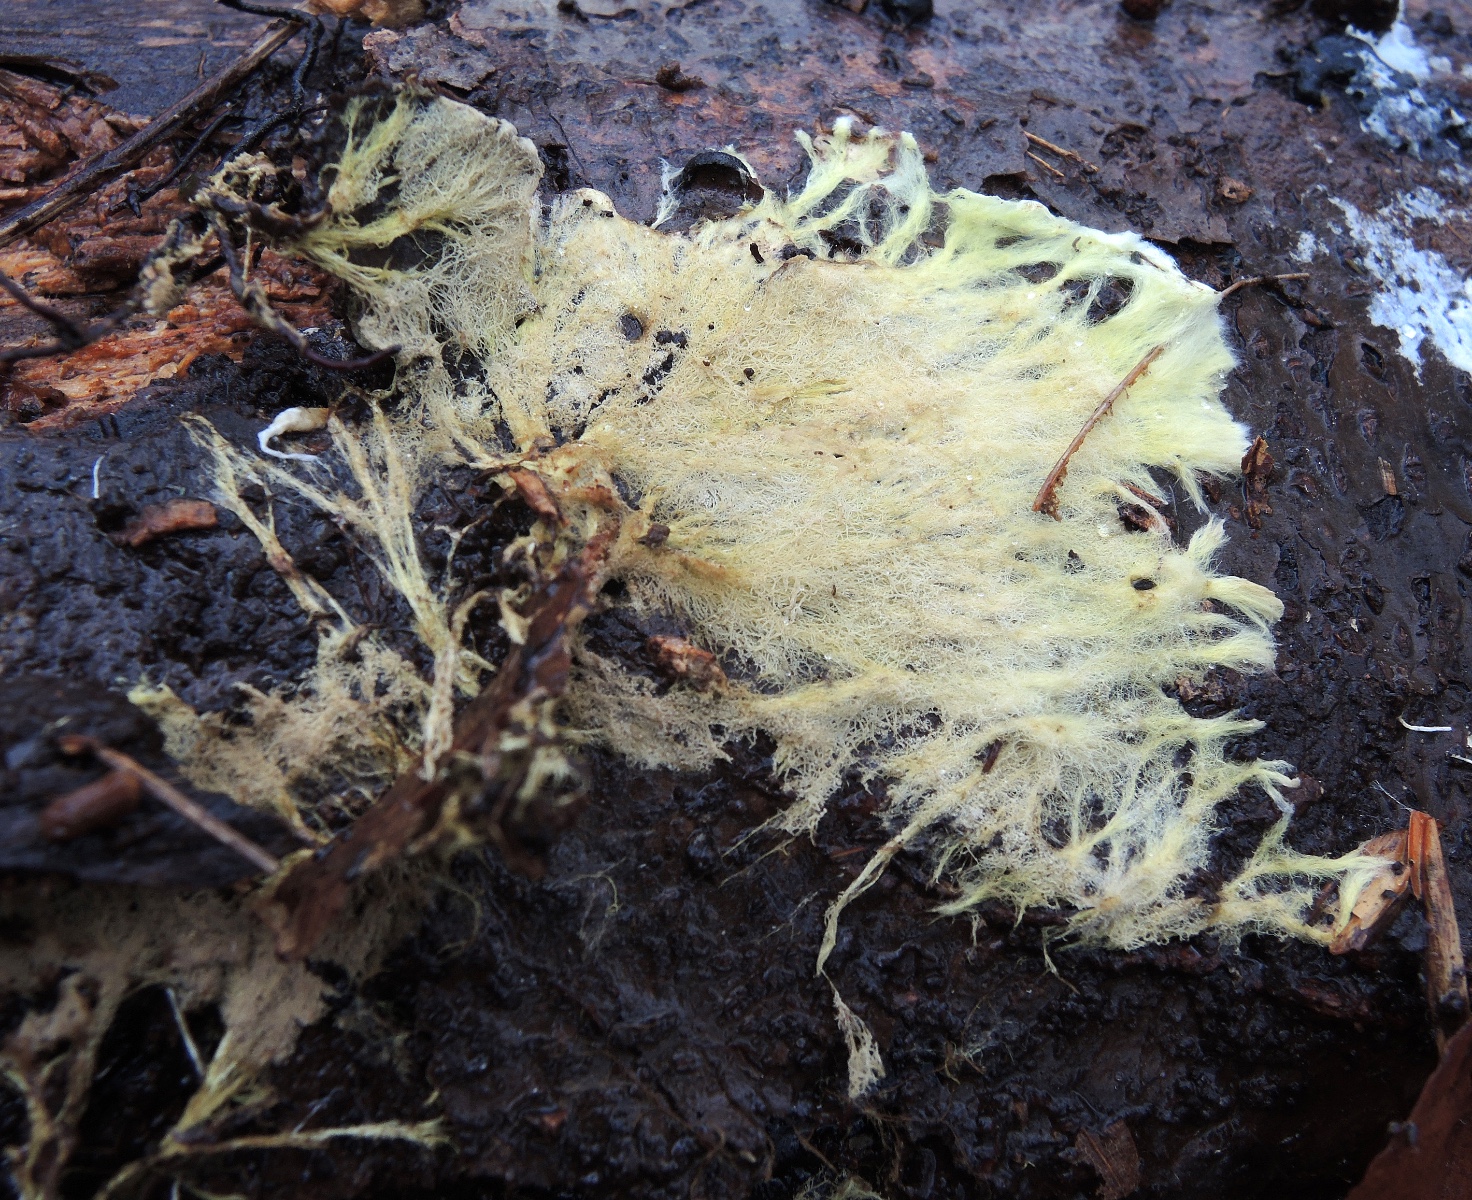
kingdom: Fungi
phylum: Basidiomycota
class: Agaricomycetes
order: Russulales
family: Xenasmataceae
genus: Xenasmatella
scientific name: Xenasmatella vaga
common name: svovl-strenghinde
